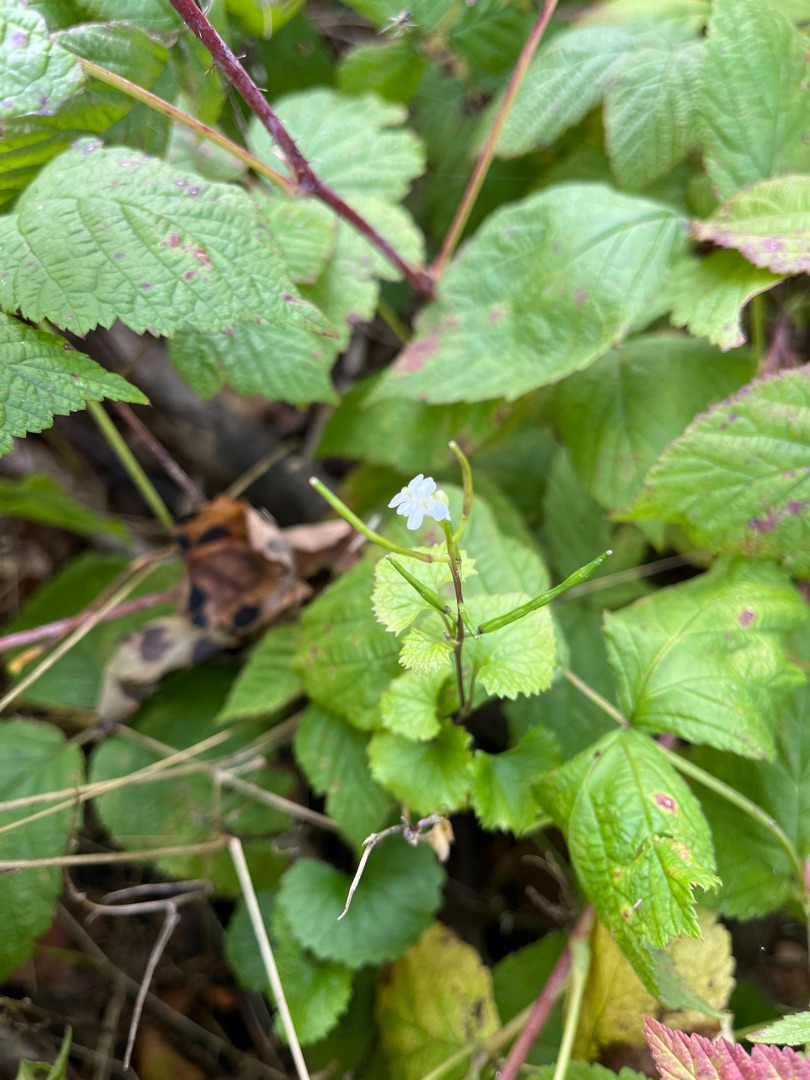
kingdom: Plantae
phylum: Tracheophyta
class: Magnoliopsida
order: Brassicales
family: Brassicaceae
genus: Alliaria
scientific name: Alliaria petiolata
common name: Løgkarse
